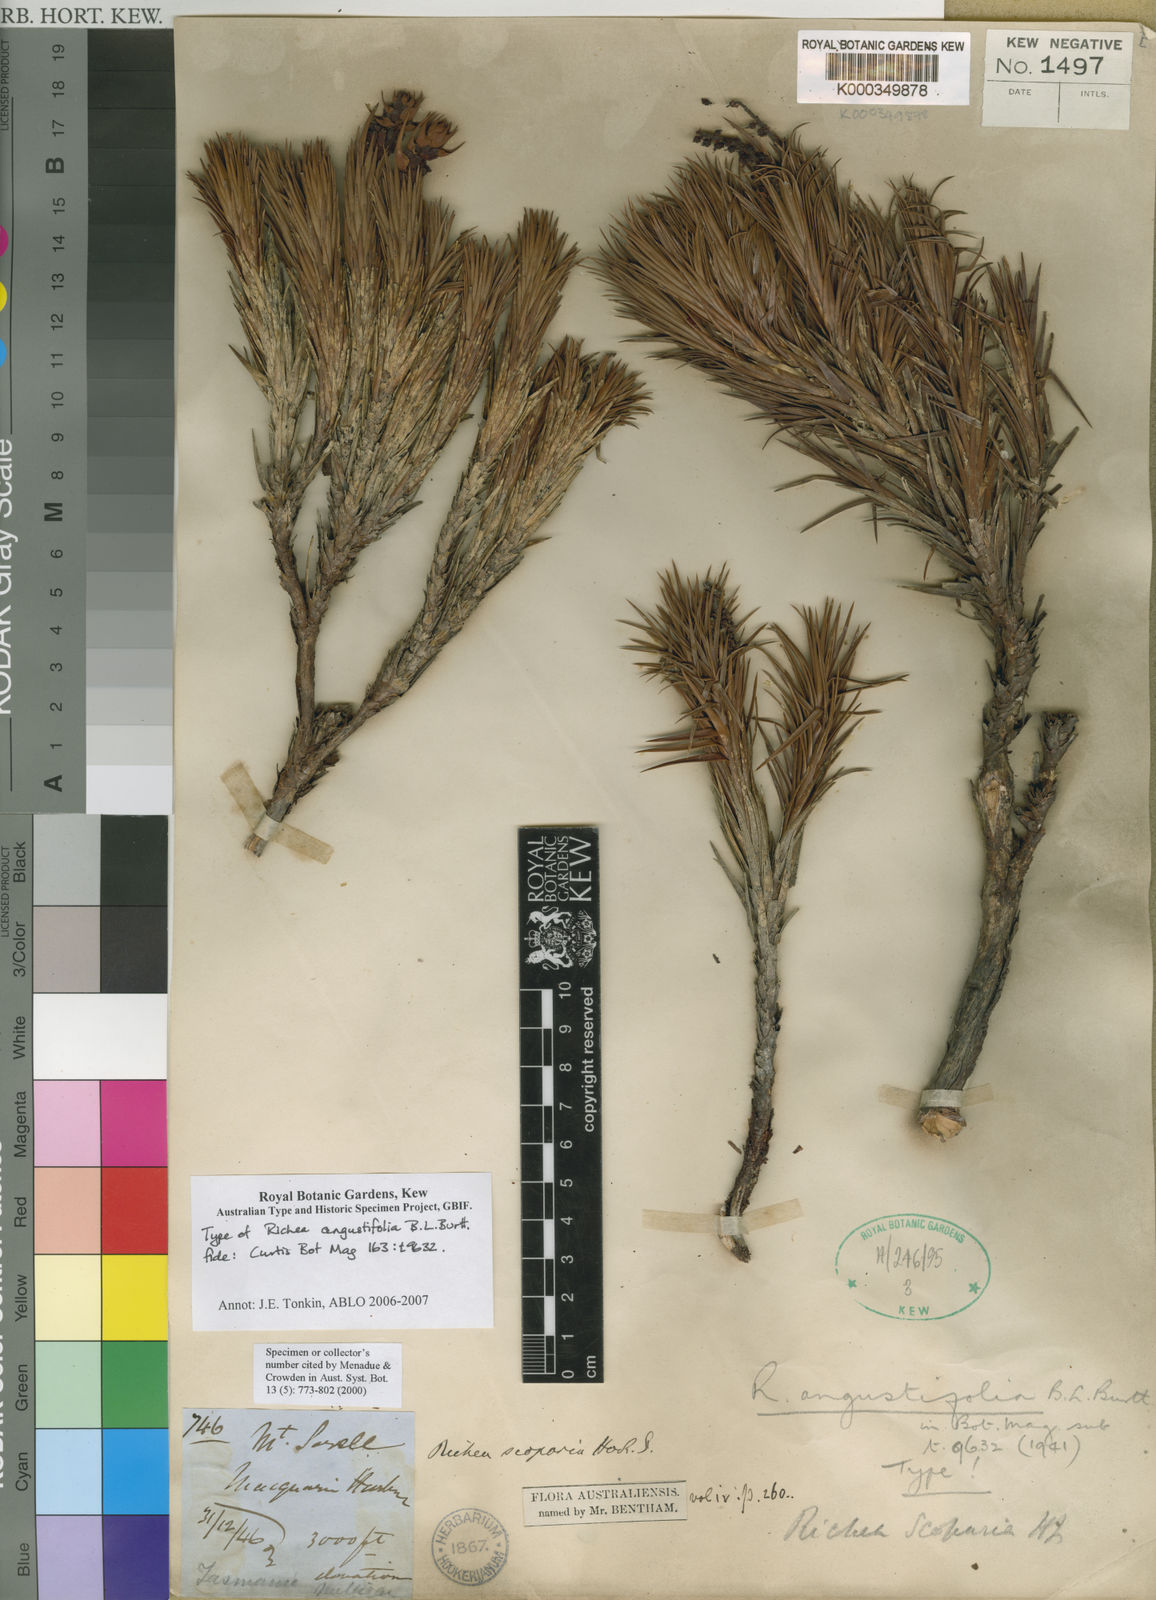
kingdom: Plantae
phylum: Tracheophyta
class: Magnoliopsida
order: Ericales
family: Ericaceae
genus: Dracophyllum
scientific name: Dracophyllum persistentifolium
